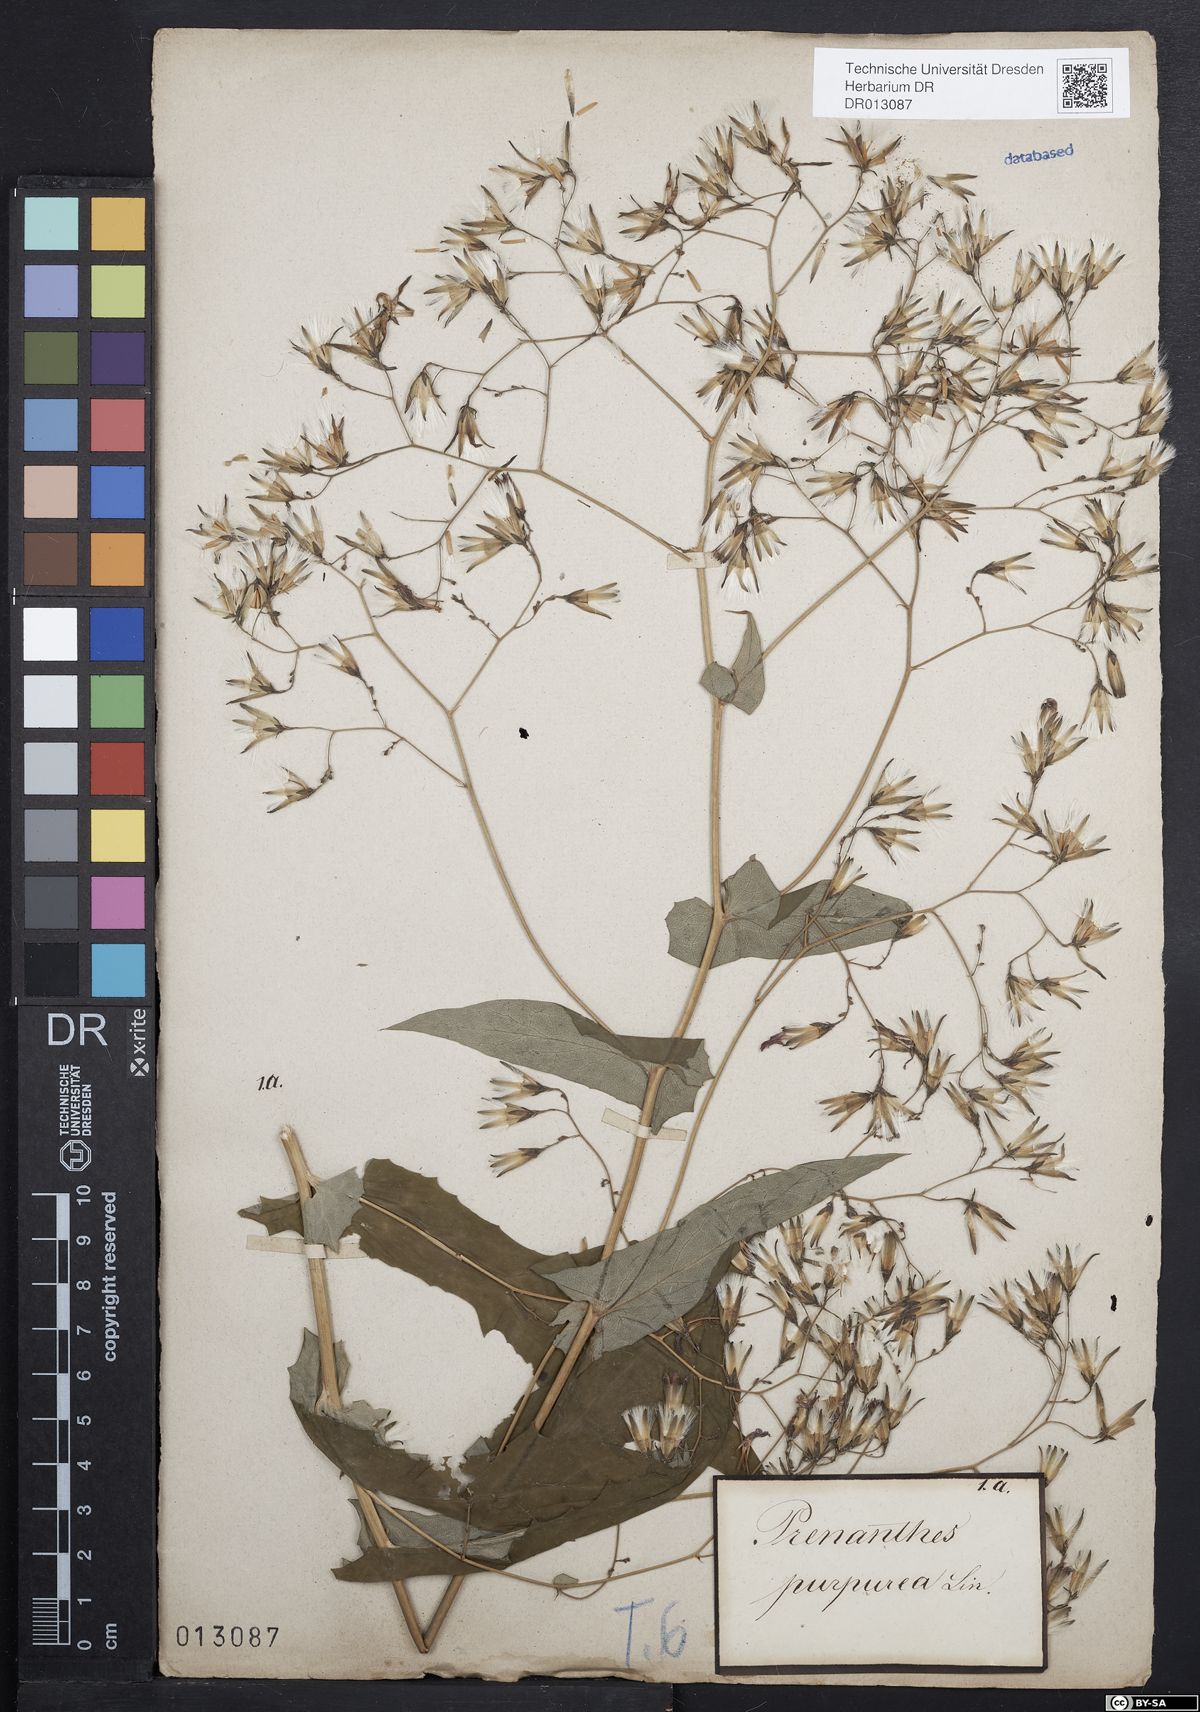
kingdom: Plantae
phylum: Tracheophyta
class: Magnoliopsida
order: Asterales
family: Asteraceae
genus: Prenanthes
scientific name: Prenanthes purpurea
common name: Purple lettuce
